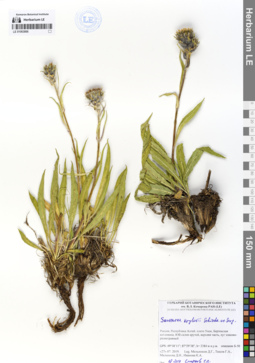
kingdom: Plantae
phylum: Tracheophyta
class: Magnoliopsida
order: Asterales
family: Asteraceae
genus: Saussurea
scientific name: Saussurea krylovii
